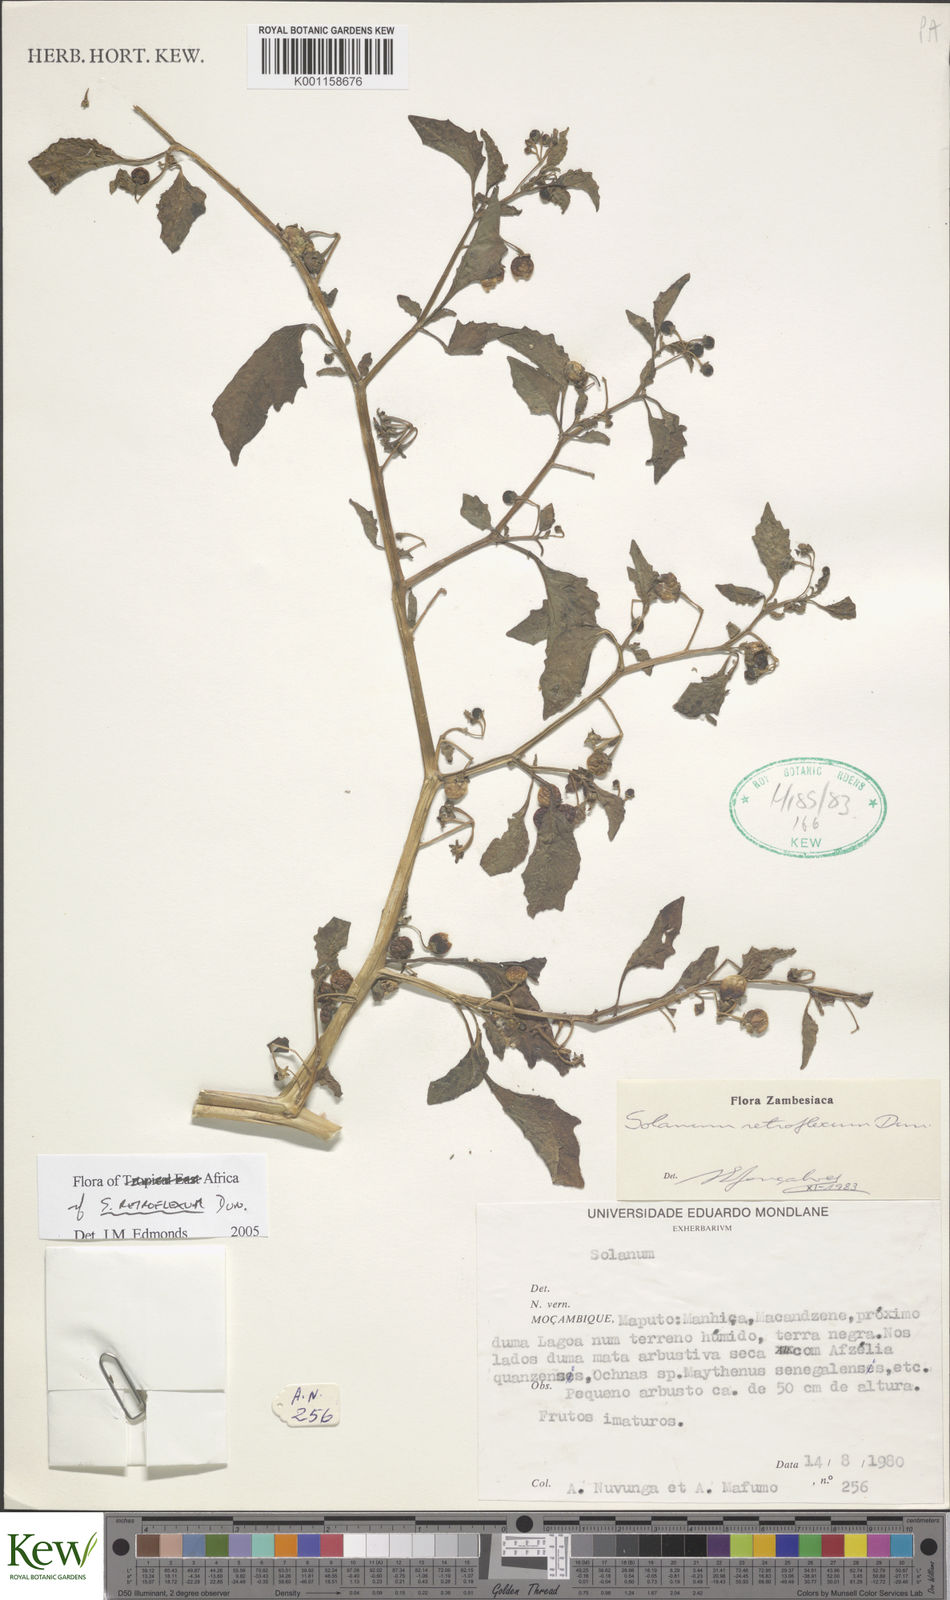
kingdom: Plantae
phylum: Tracheophyta
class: Magnoliopsida
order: Solanales
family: Solanaceae
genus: Solanum
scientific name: Solanum retroflexum
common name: Wonderberry
